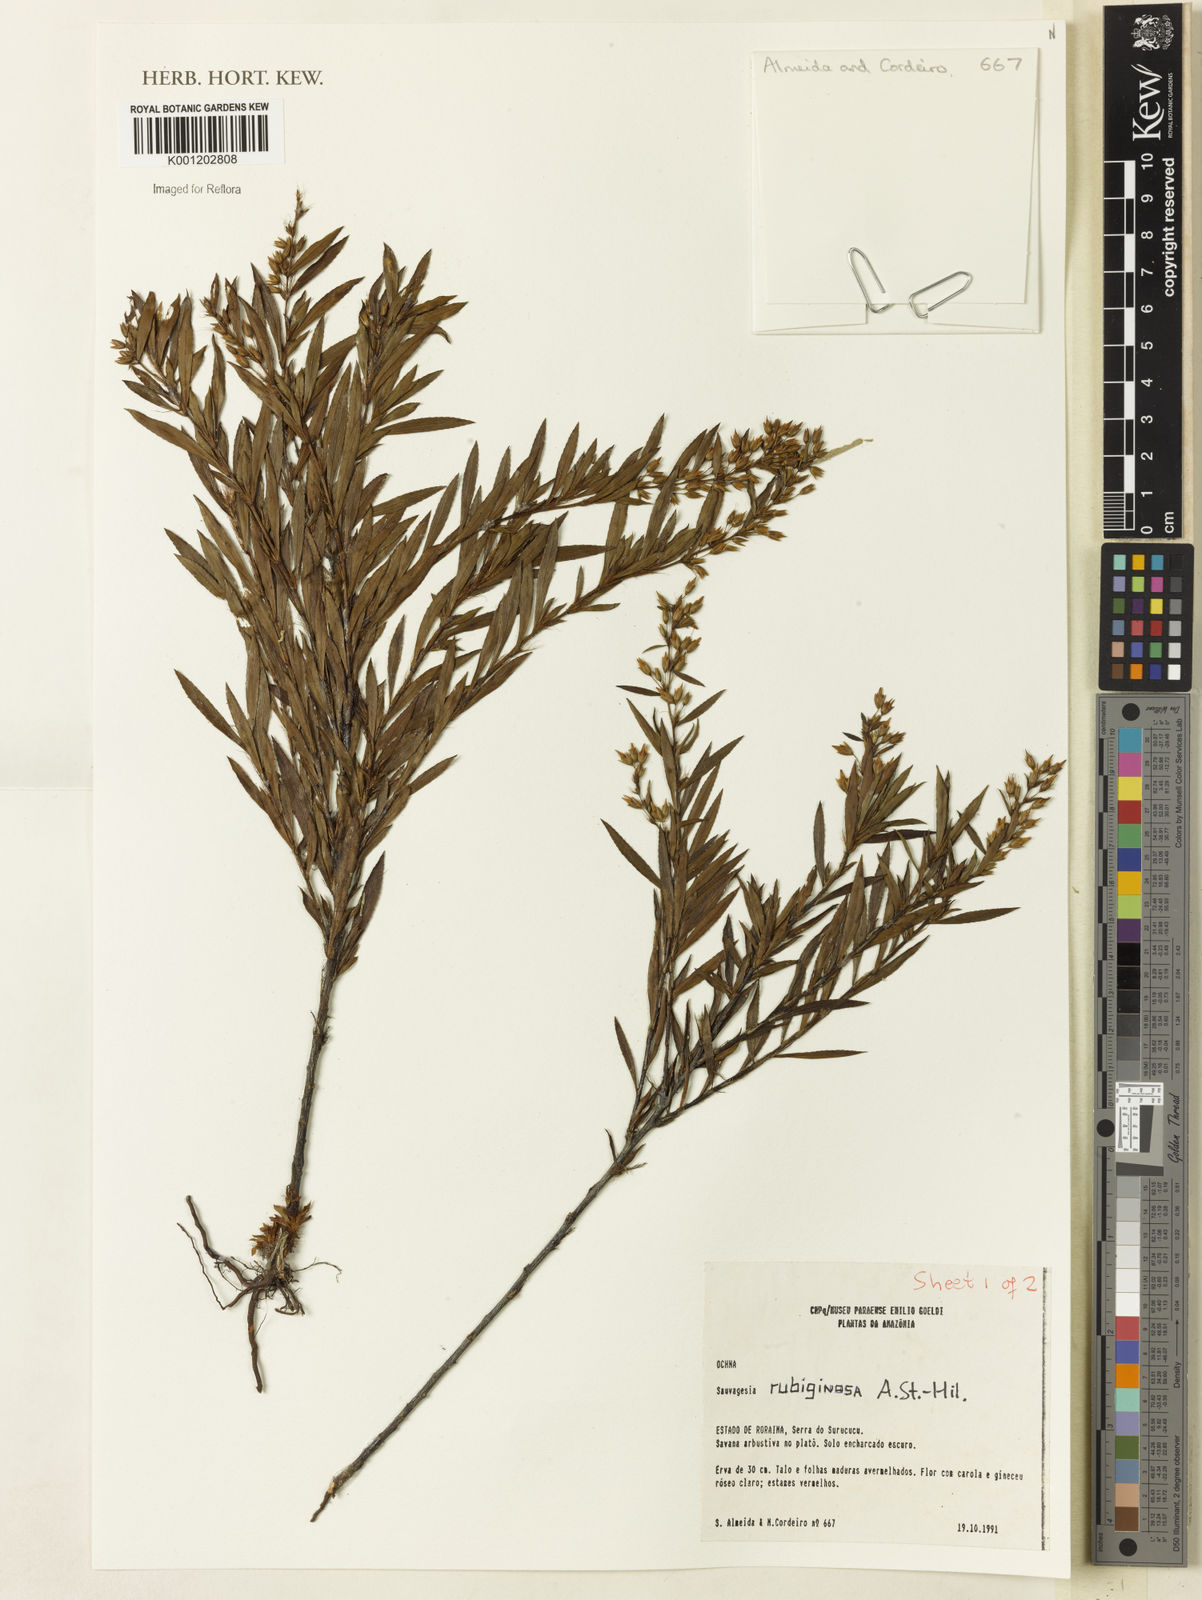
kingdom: Plantae
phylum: Tracheophyta
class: Magnoliopsida
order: Malpighiales
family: Ochnaceae
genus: Sauvagesia
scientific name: Sauvagesia rubiginosa
